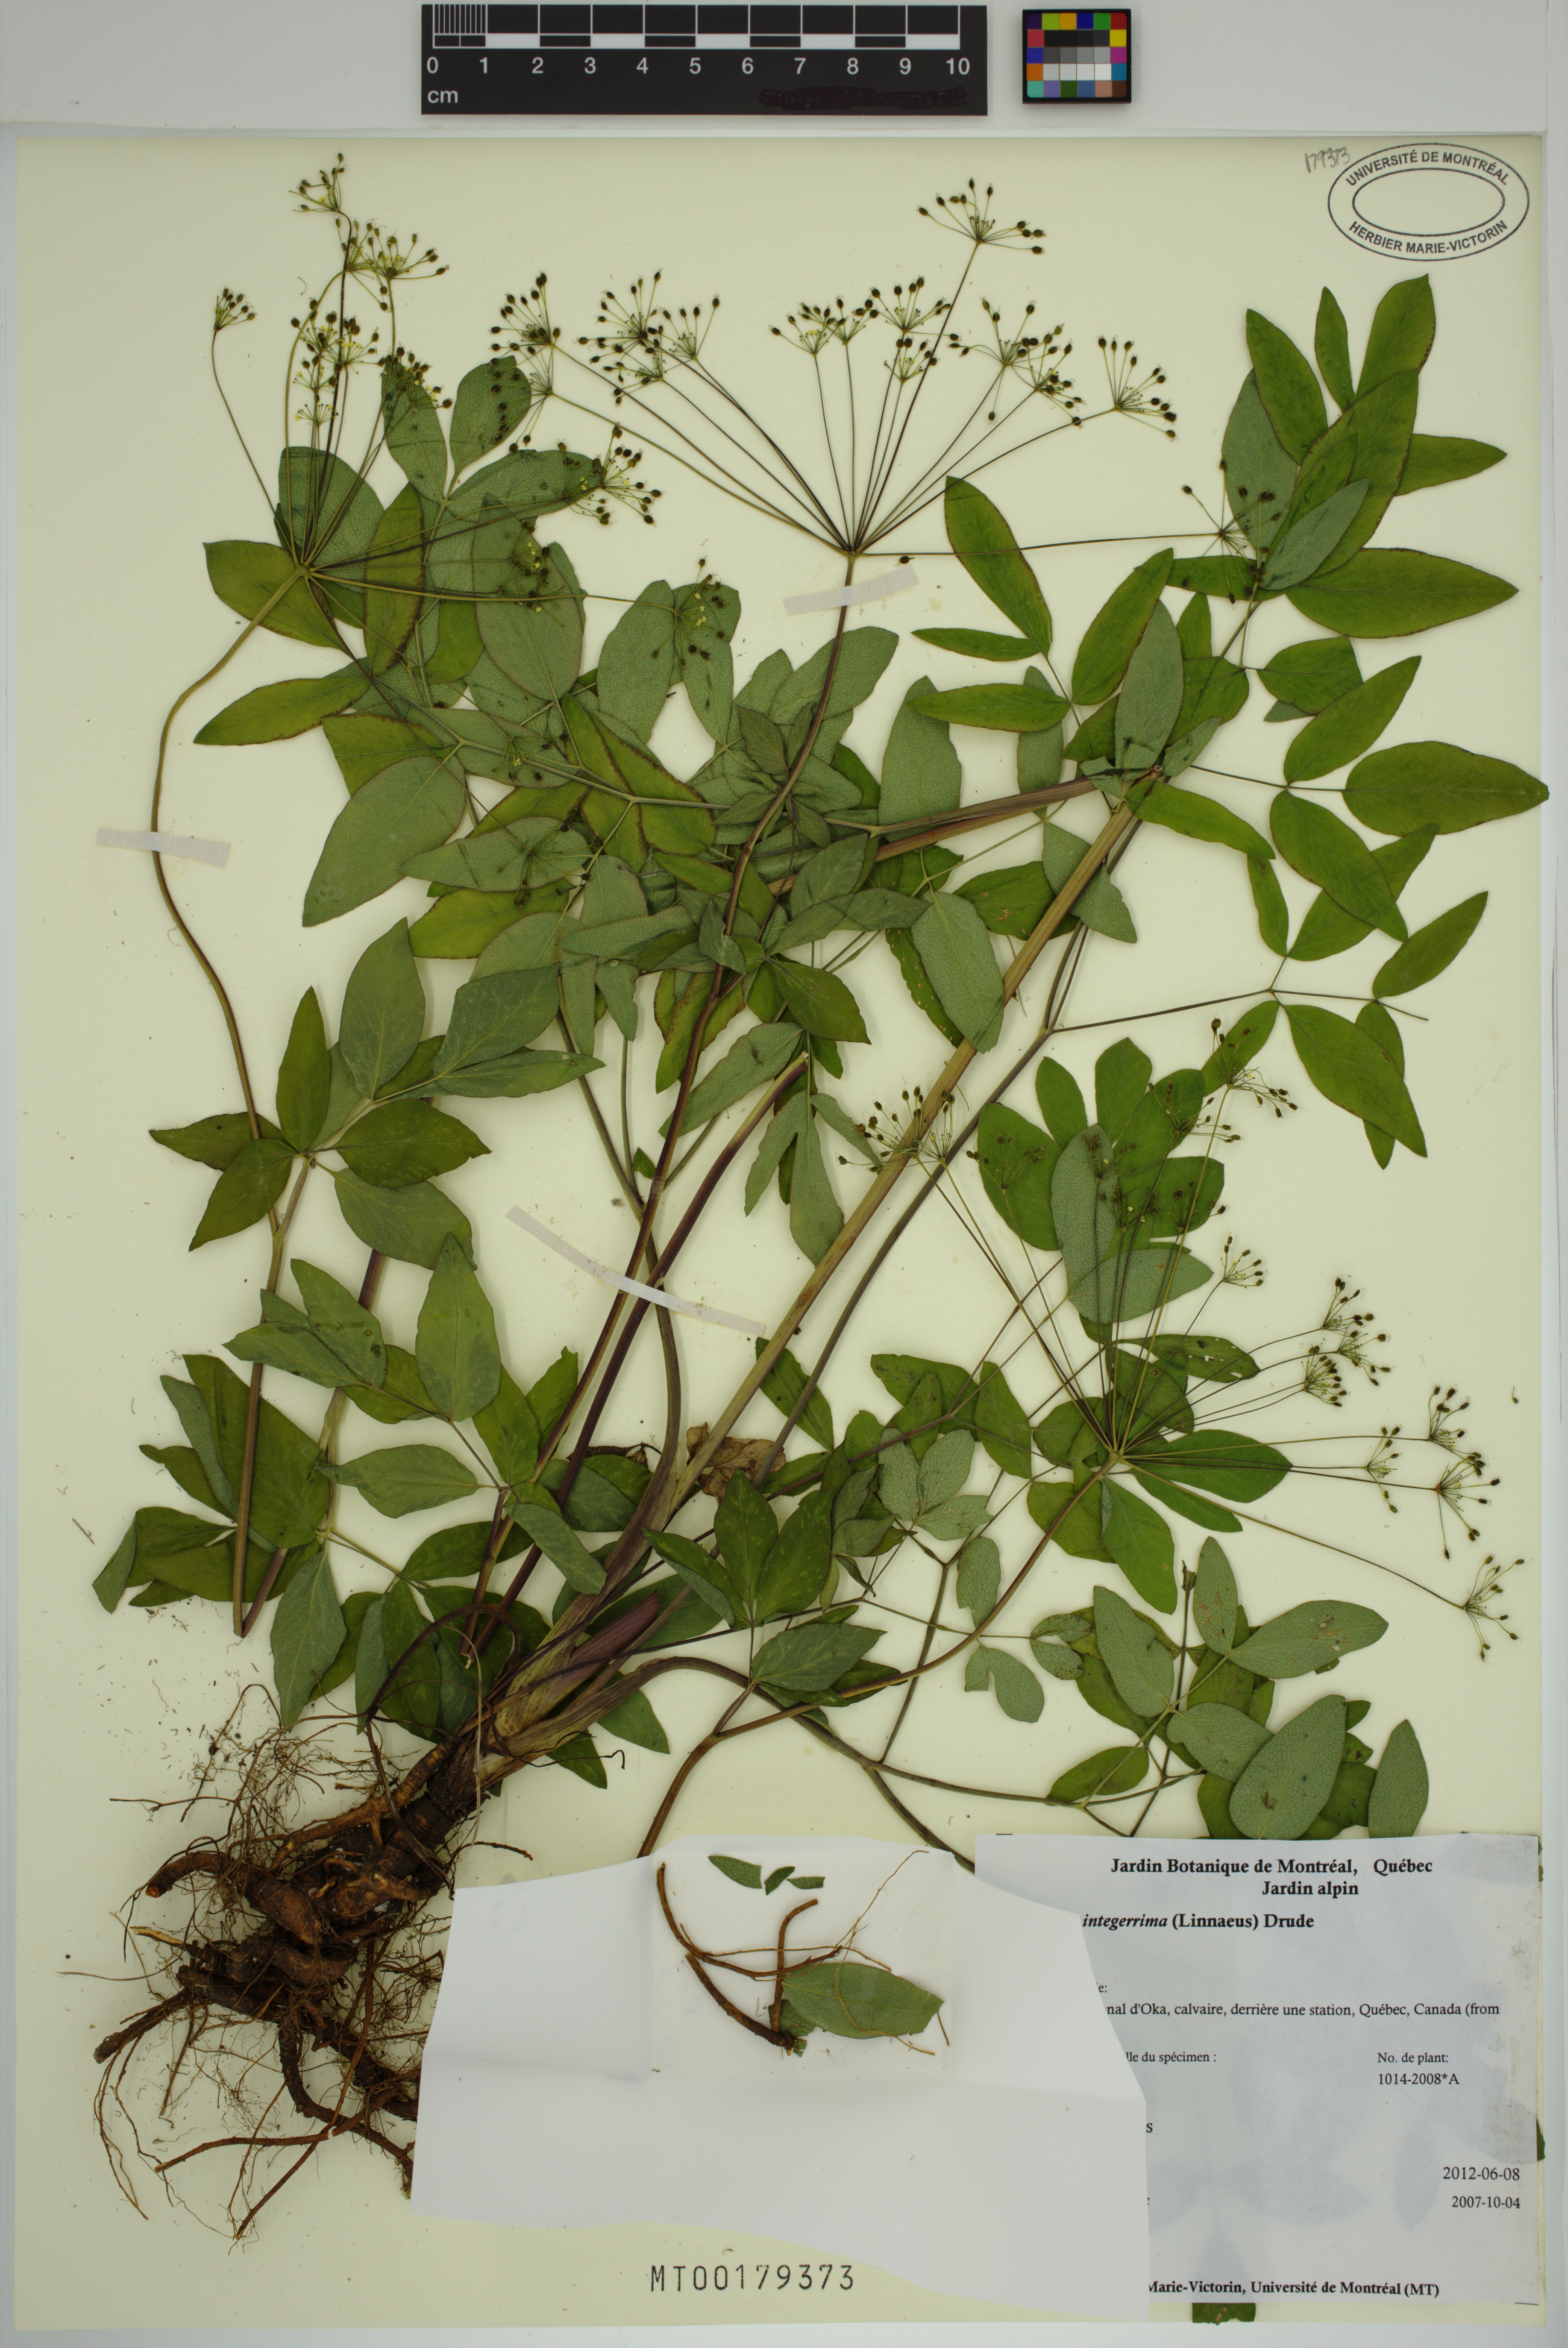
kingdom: Plantae
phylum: Tracheophyta
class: Magnoliopsida
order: Apiales
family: Apiaceae
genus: Taenidia
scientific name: Taenidia integerrima
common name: Golden alexander
